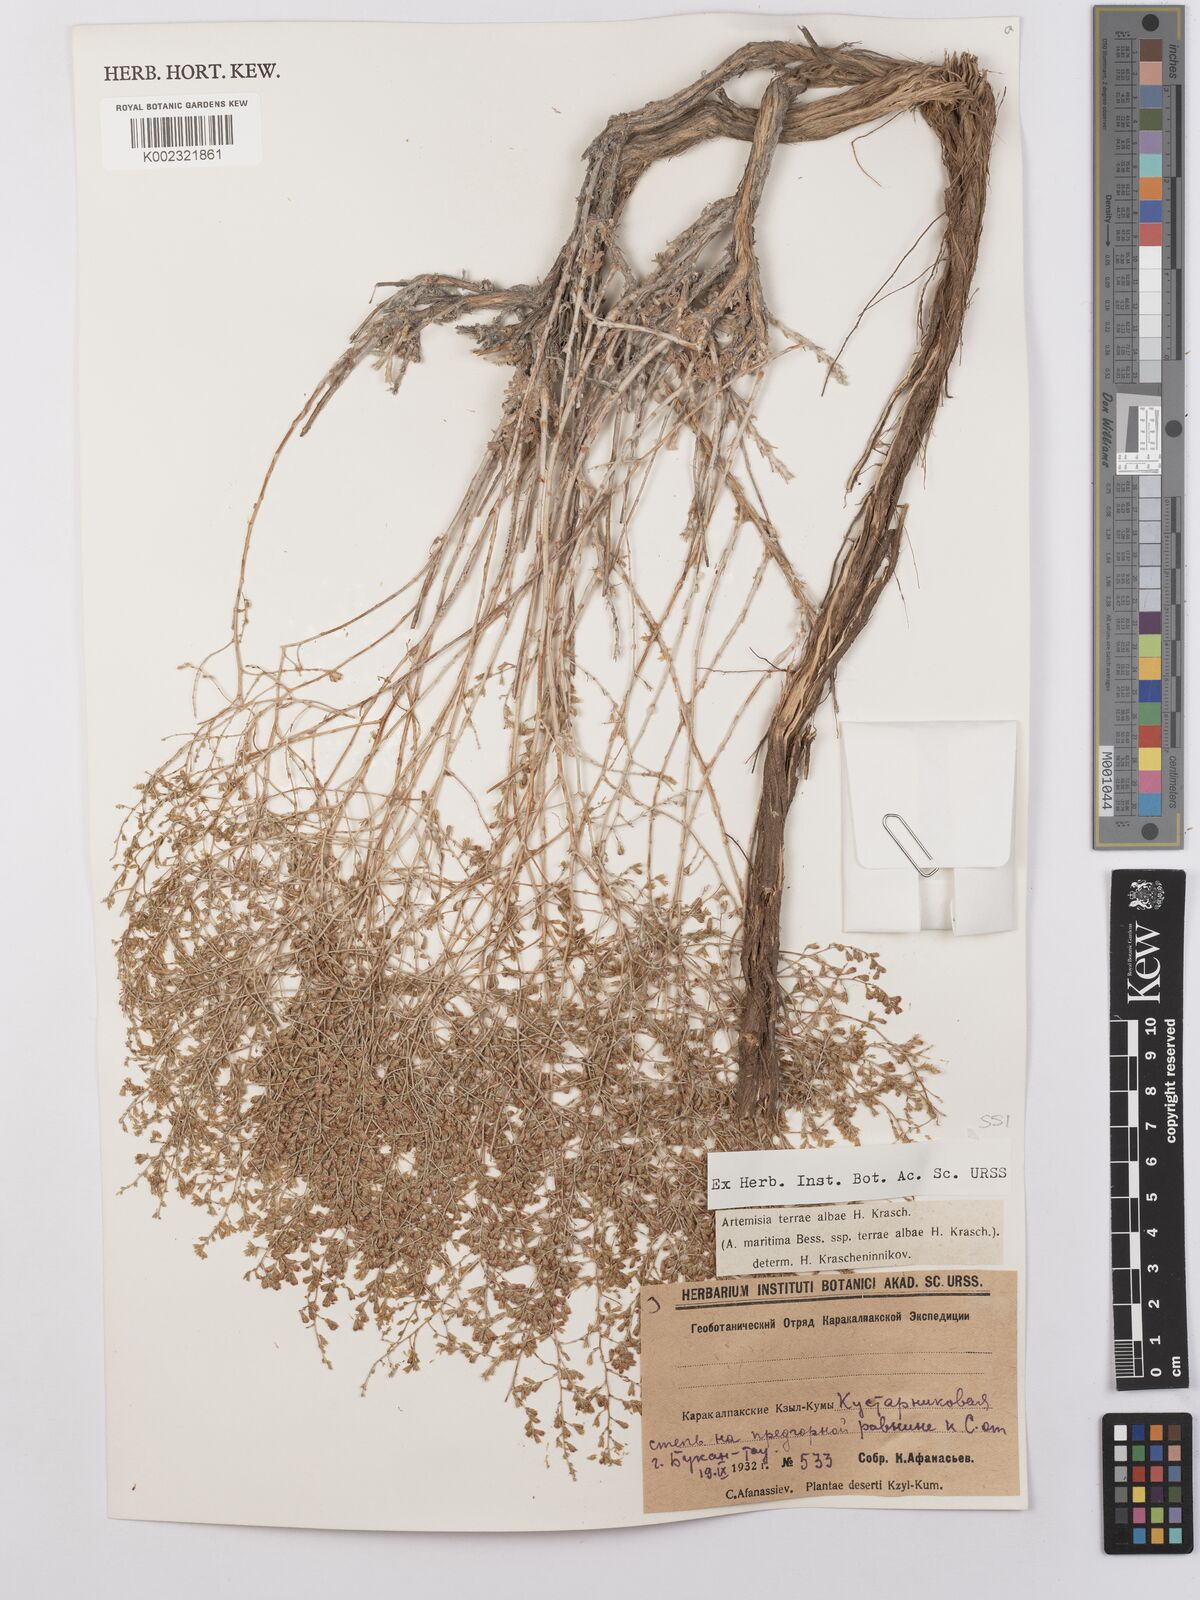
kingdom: Plantae
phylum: Tracheophyta
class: Magnoliopsida
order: Asterales
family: Asteraceae
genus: Artemisia
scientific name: Artemisia terrae-albae
